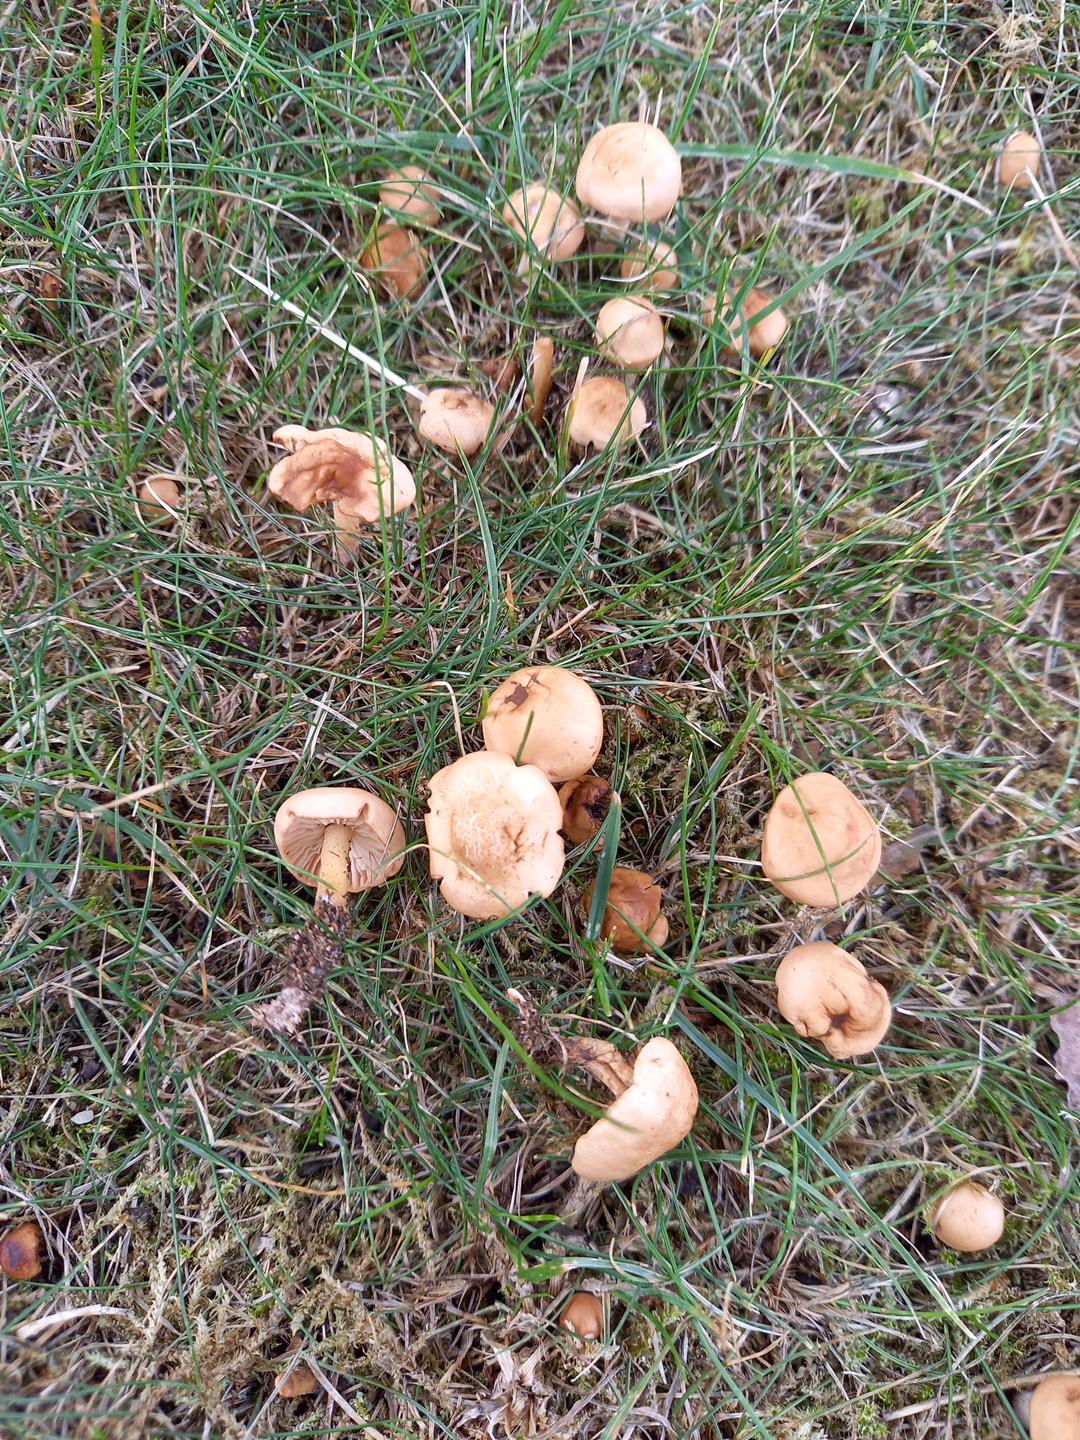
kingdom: Fungi
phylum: Basidiomycota
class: Agaricomycetes
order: Agaricales
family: Marasmiaceae
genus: Marasmius
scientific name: Marasmius oreades
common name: elledans-bruskhat
